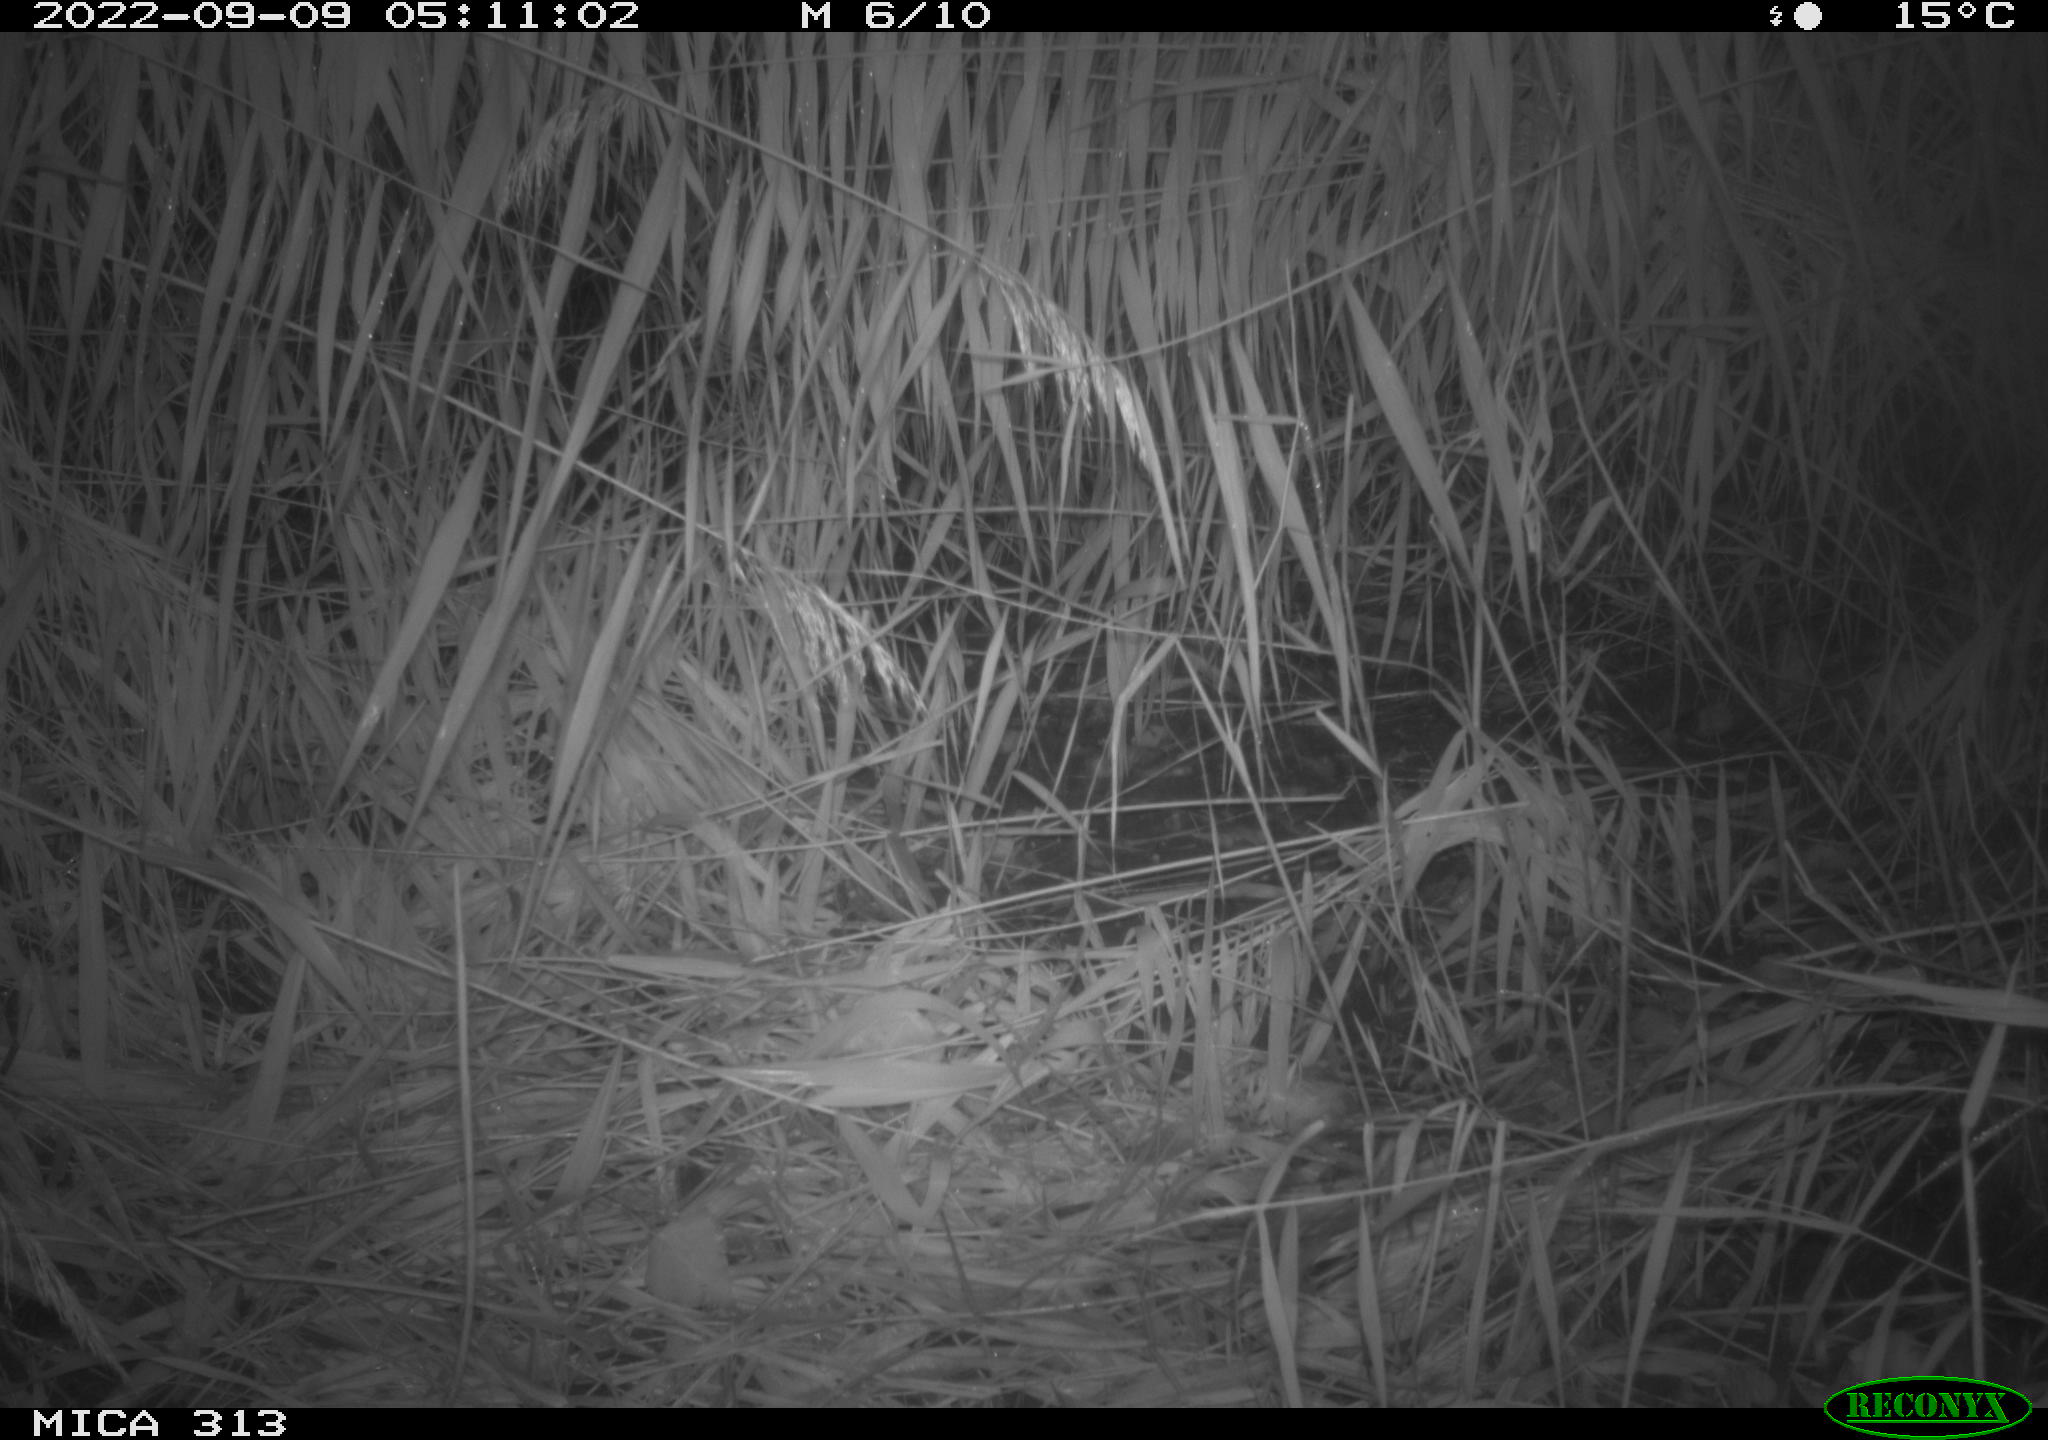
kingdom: Animalia
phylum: Chordata
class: Mammalia
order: Rodentia
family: Muridae
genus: Rattus
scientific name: Rattus norvegicus
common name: Brown rat
